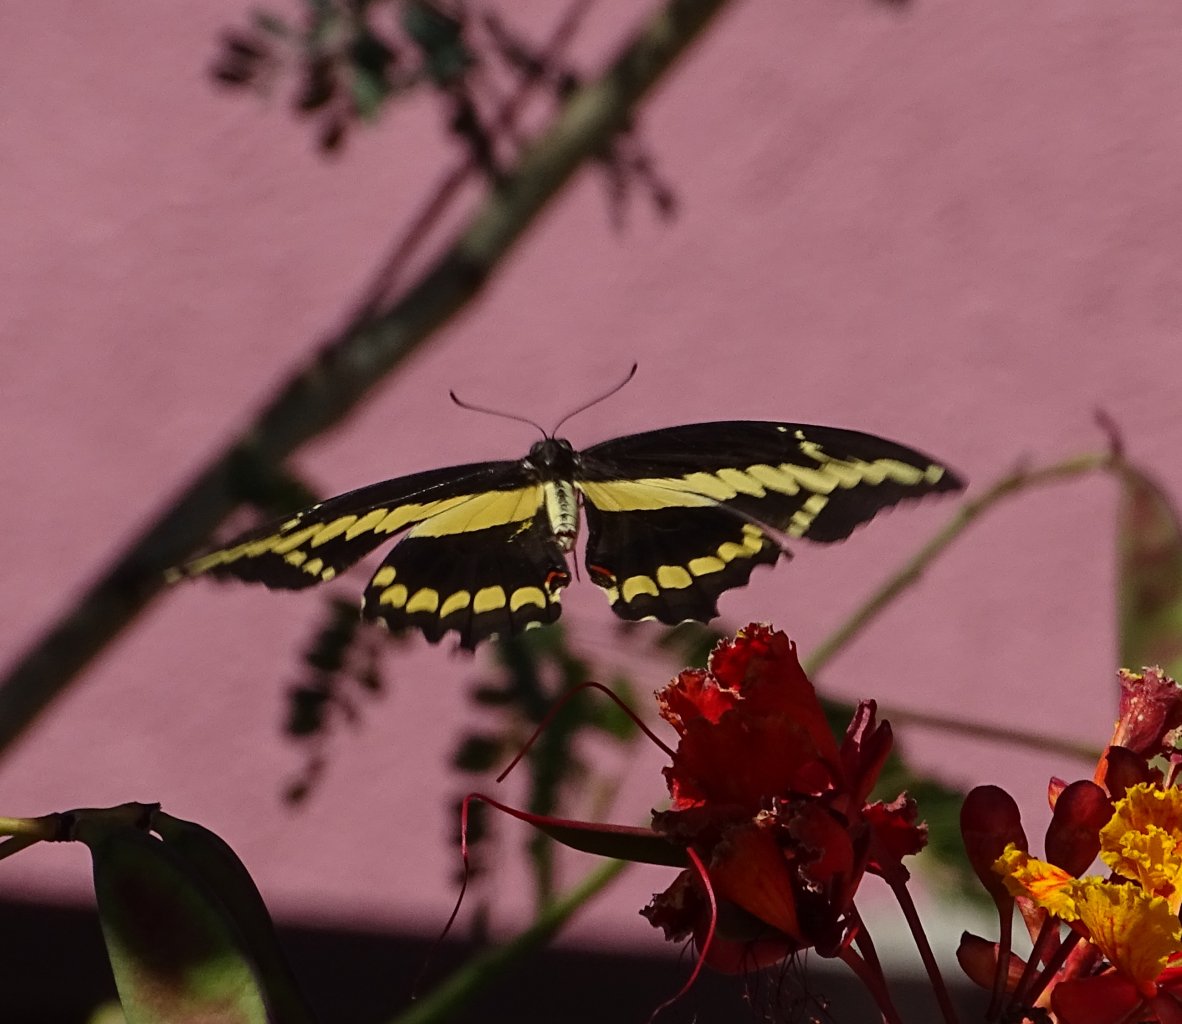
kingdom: Animalia
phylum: Arthropoda
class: Insecta
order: Lepidoptera
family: Papilionidae
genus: Papilio
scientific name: Papilio rumiko
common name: Western Giant Swallowtail
